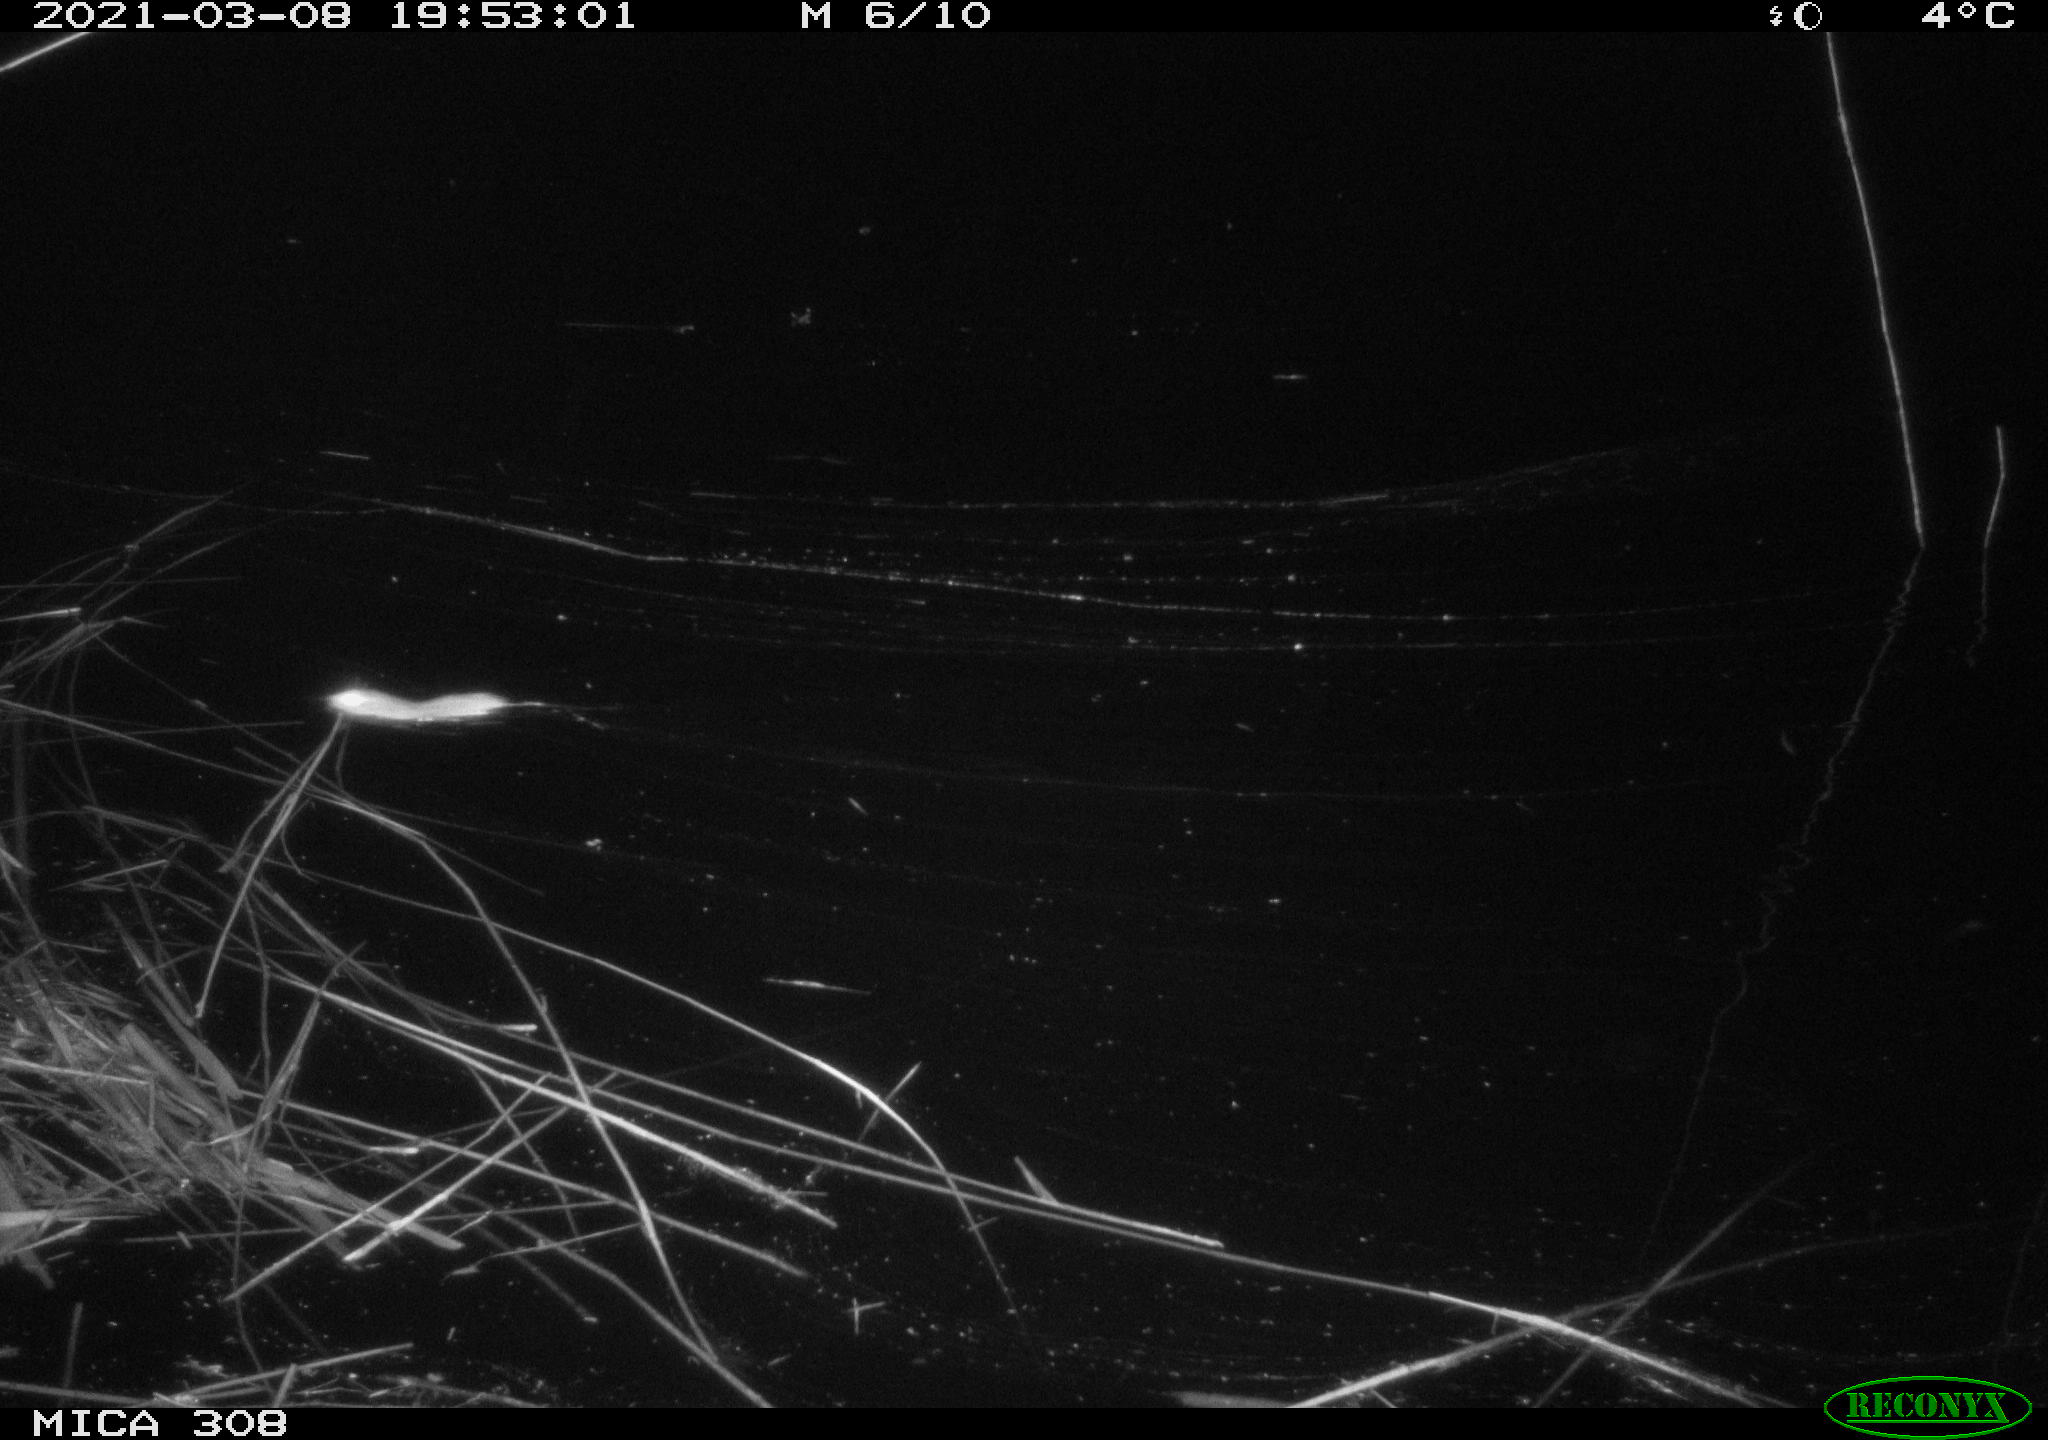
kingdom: Animalia
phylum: Chordata
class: Mammalia
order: Rodentia
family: Muridae
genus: Rattus
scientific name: Rattus norvegicus
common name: Brown rat
